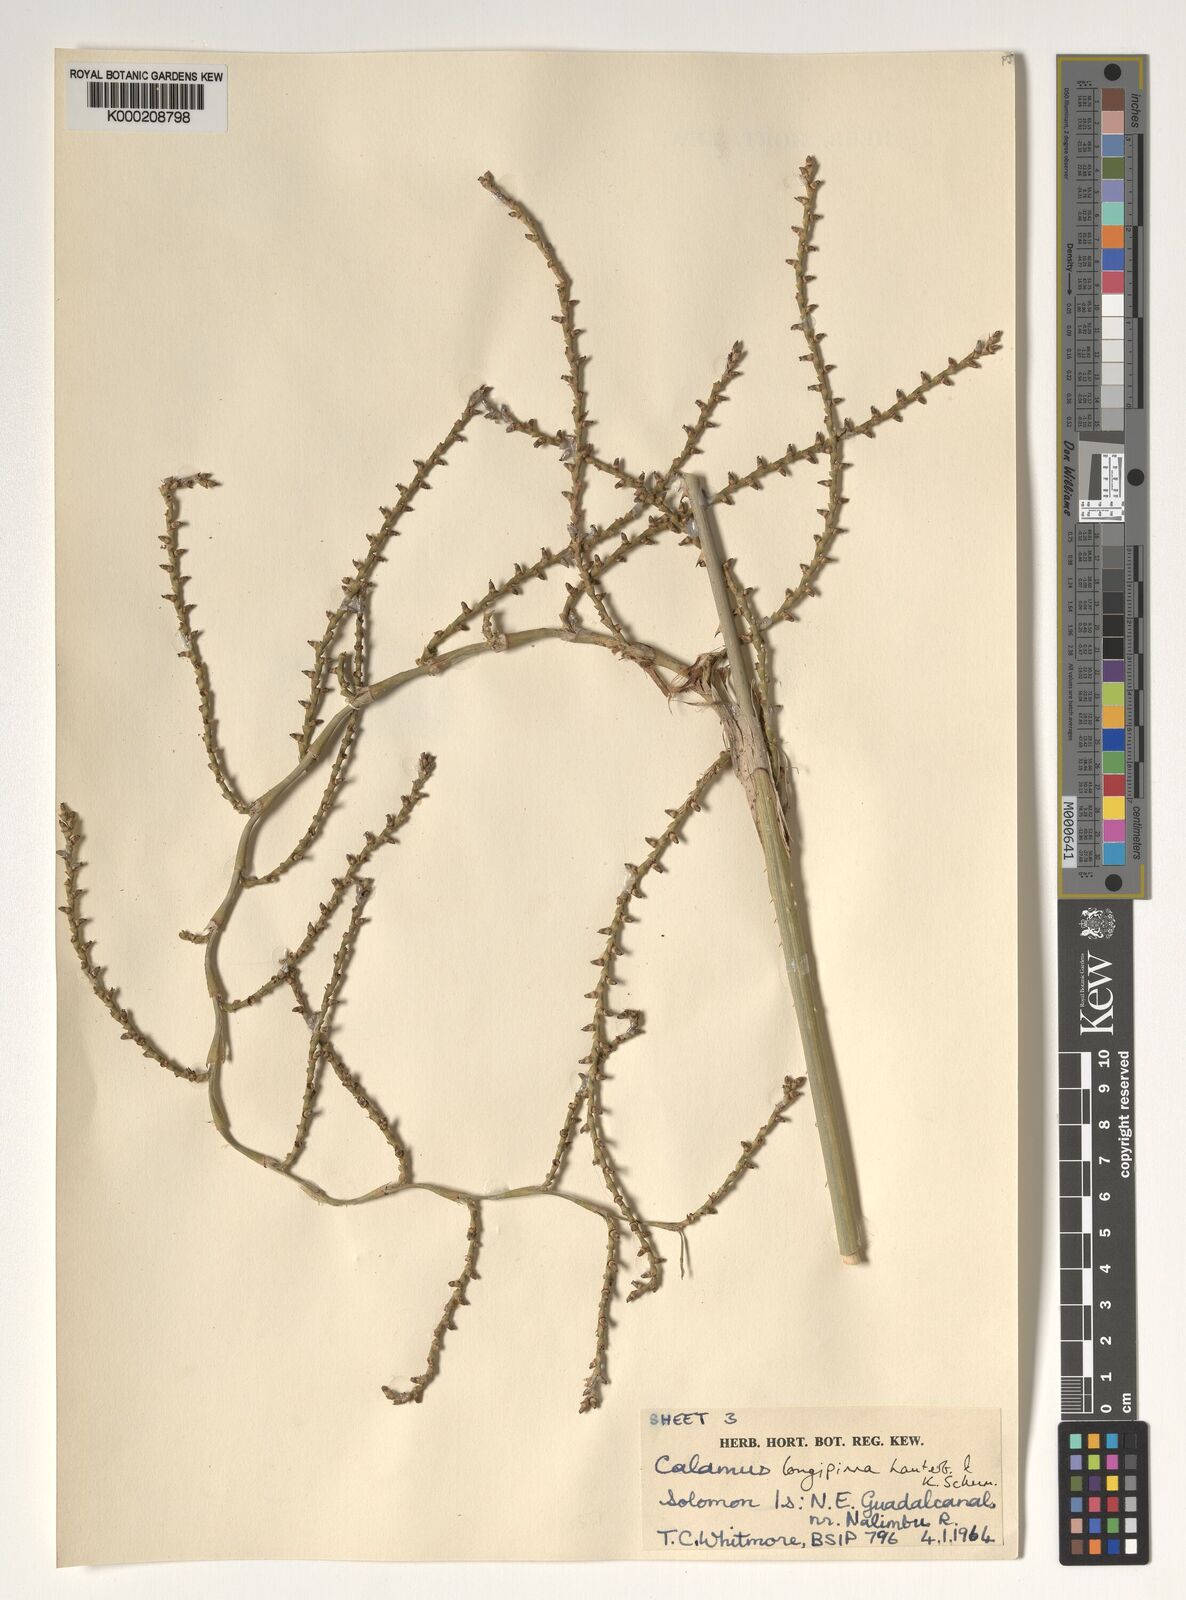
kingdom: Plantae
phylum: Tracheophyta
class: Liliopsida
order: Arecales
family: Arecaceae
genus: Calamus
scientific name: Calamus longipinna
